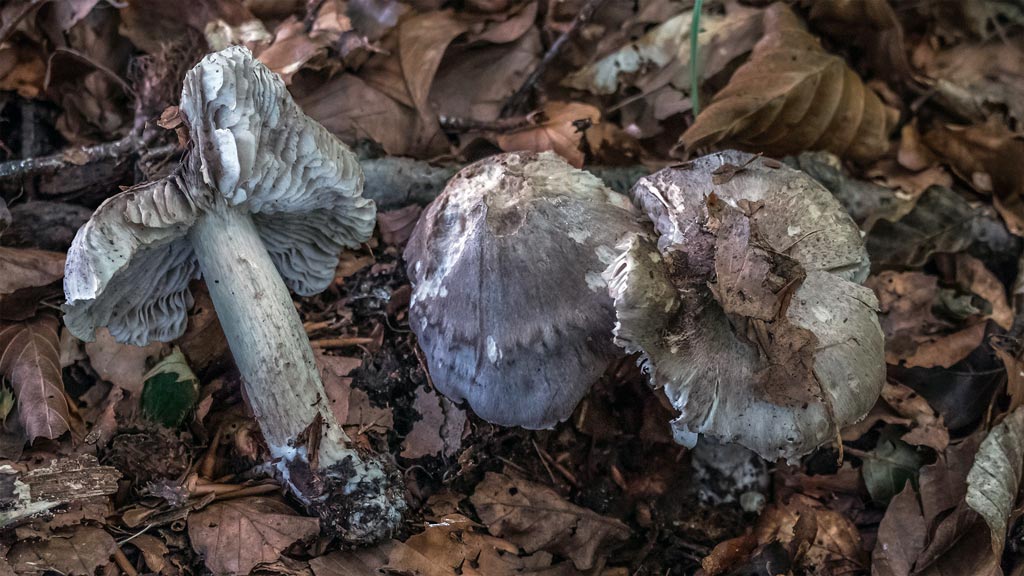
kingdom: Fungi
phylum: Basidiomycota
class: Agaricomycetes
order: Agaricales
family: Tricholomataceae
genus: Tricholoma
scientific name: Tricholoma sciodes
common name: stribet ridderhat
